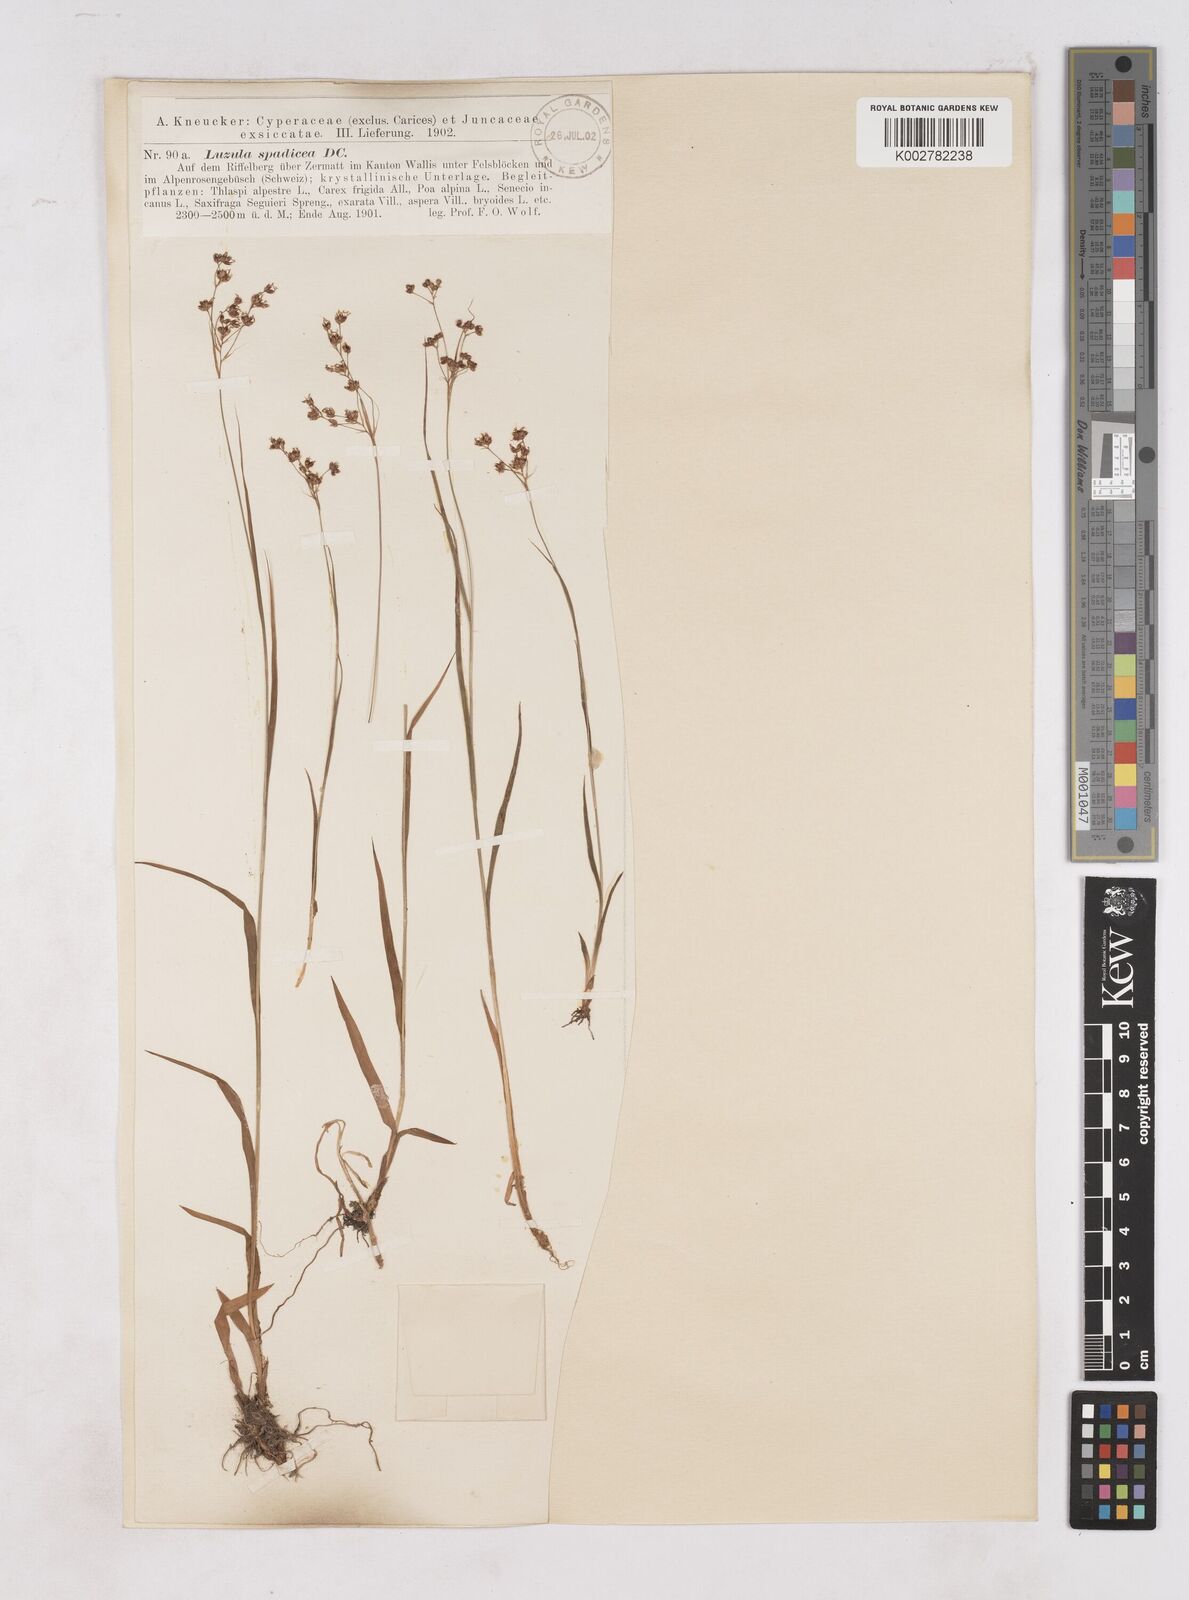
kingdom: Plantae
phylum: Tracheophyta
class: Liliopsida
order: Poales
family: Juncaceae
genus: Luzula
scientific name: Luzula alpinopilosa
